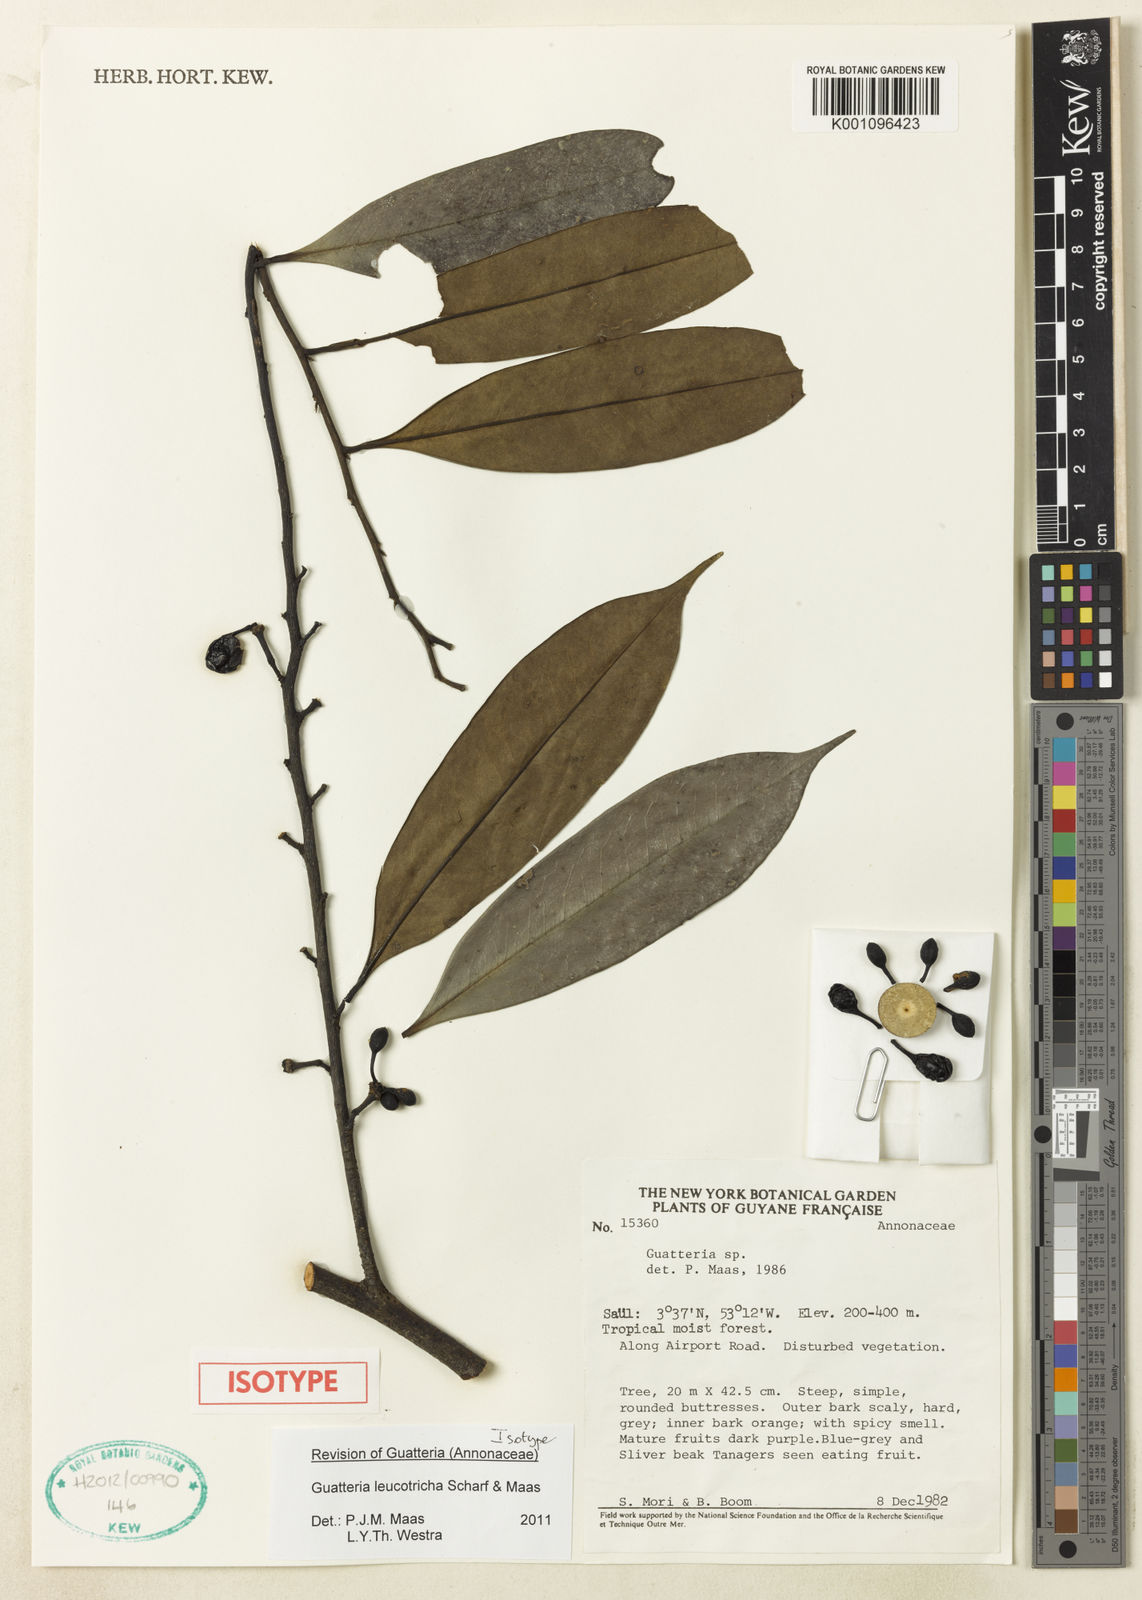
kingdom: Plantae
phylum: Tracheophyta
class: Magnoliopsida
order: Magnoliales
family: Annonaceae
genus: Guatteria
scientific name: Guatteria leucotricha
